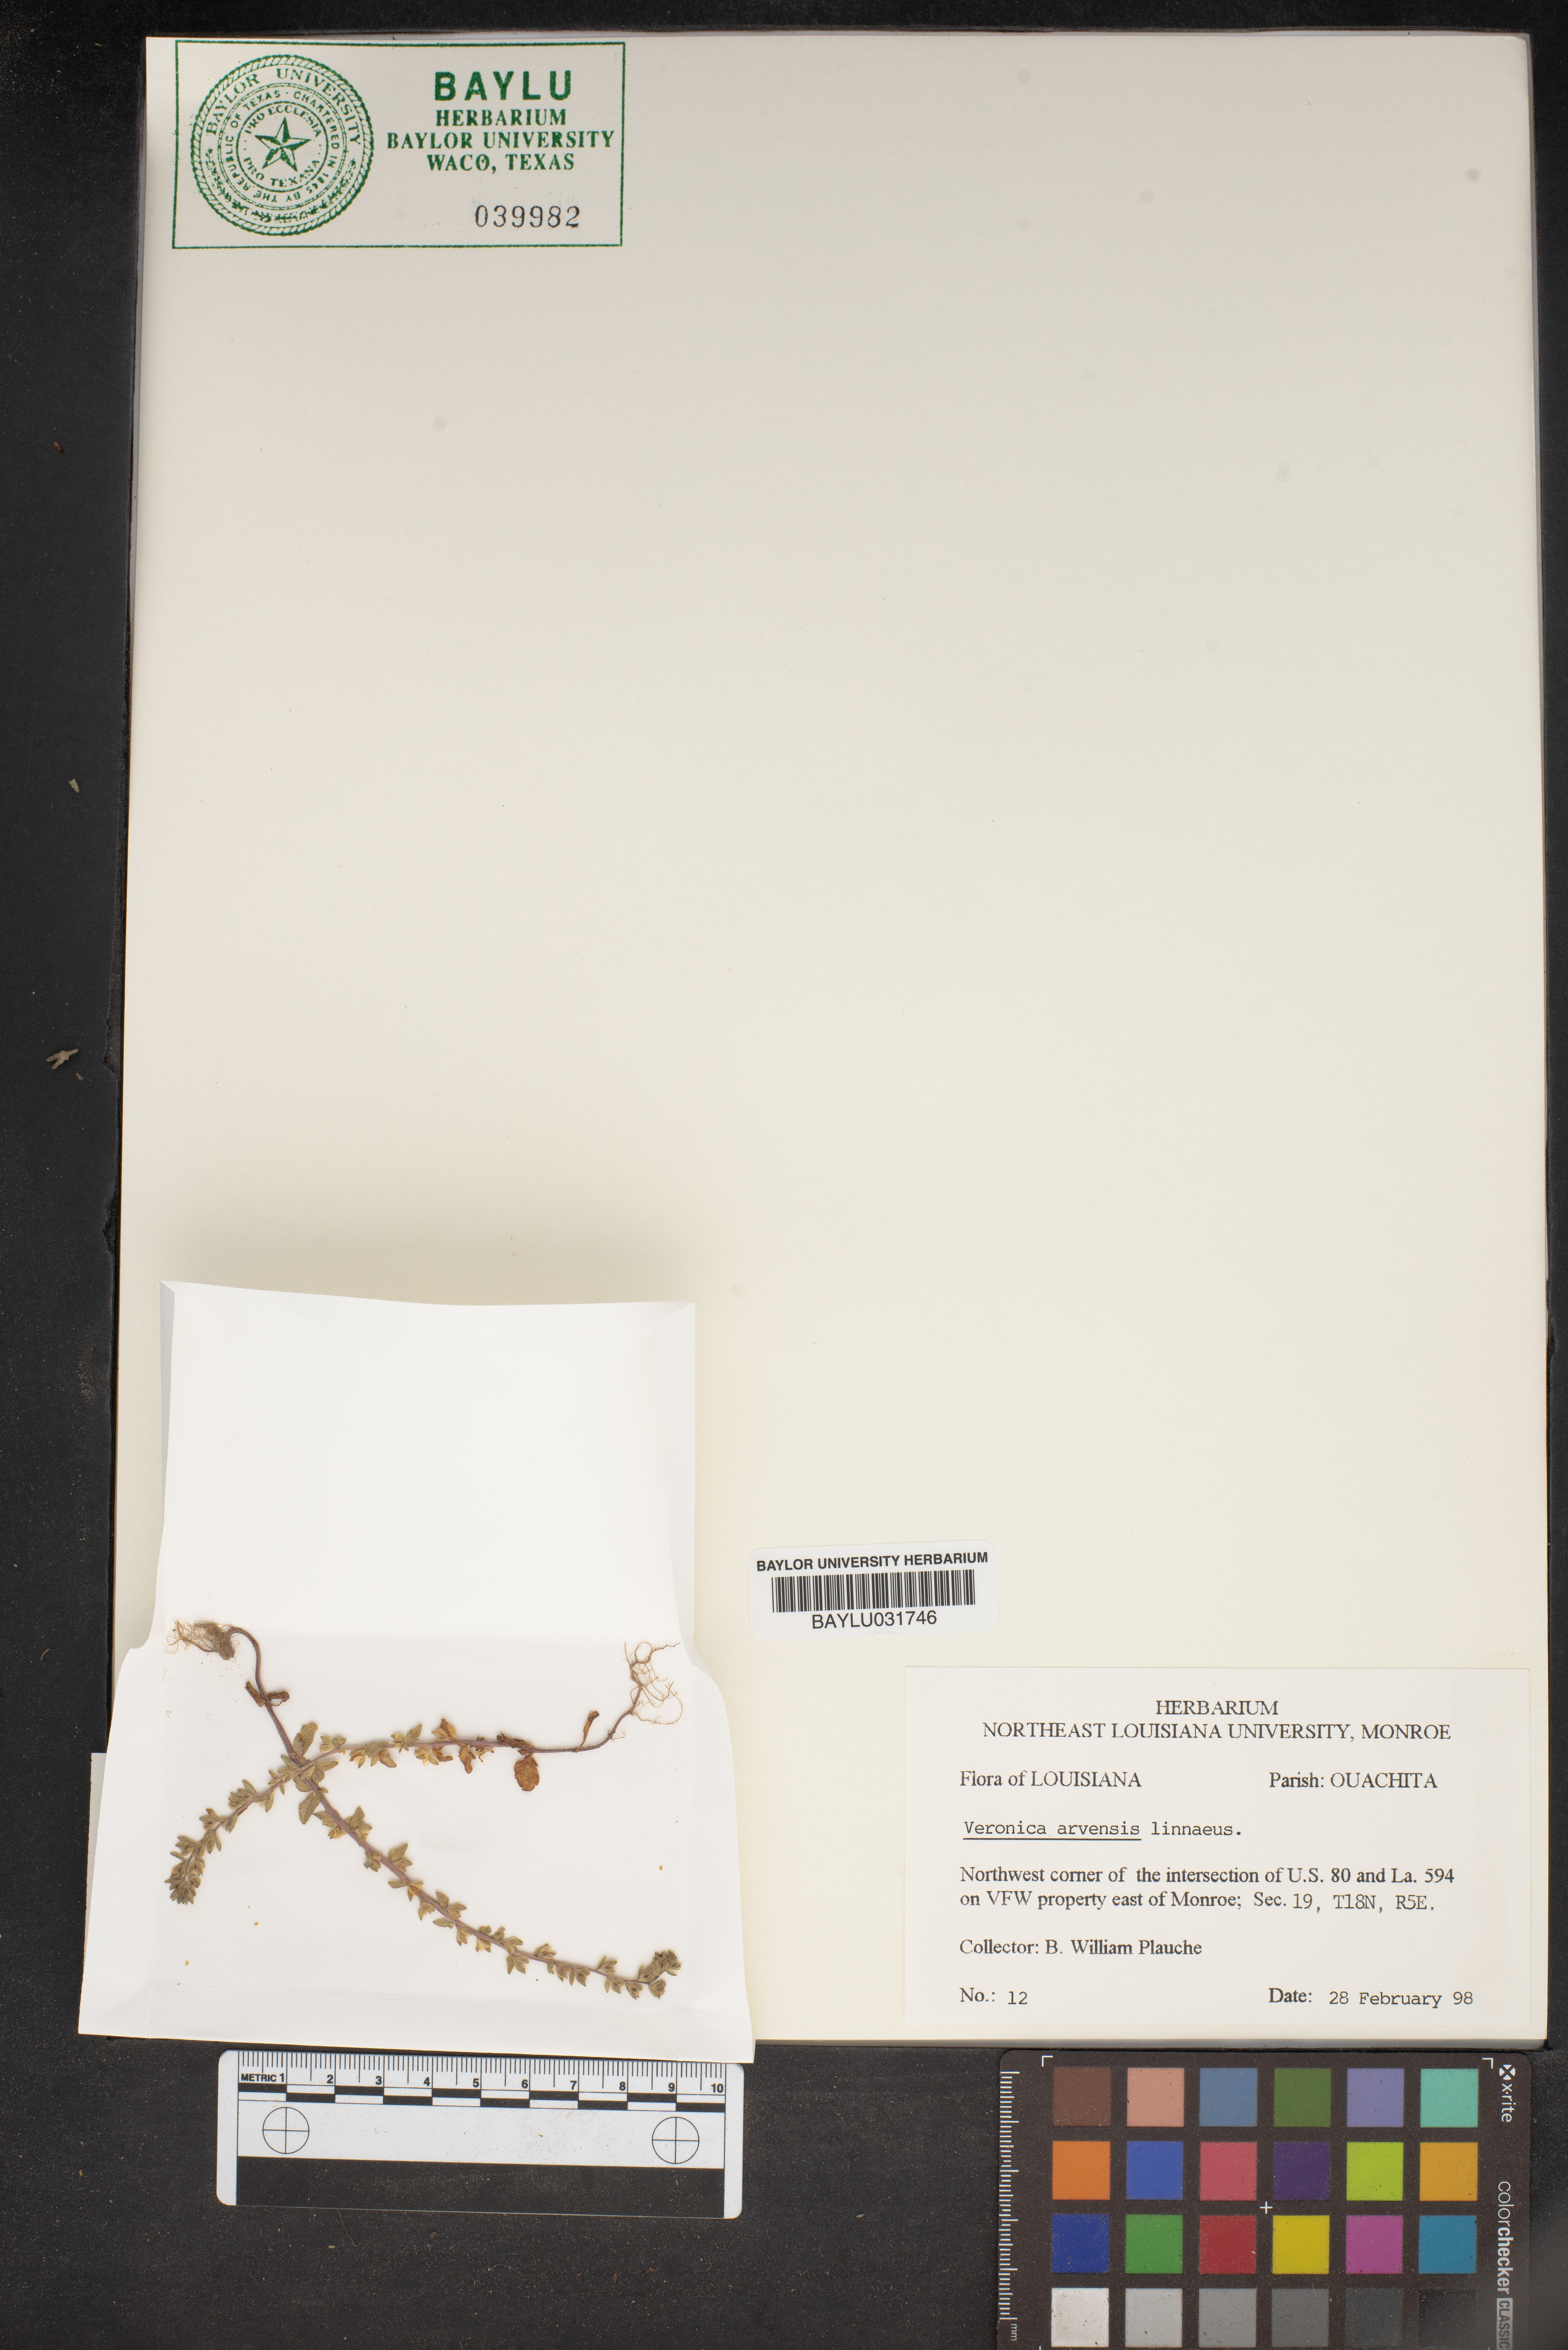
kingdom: Plantae
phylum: Tracheophyta
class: Magnoliopsida
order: Lamiales
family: Plantaginaceae
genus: Veronica
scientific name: Veronica arvensis
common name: Corn speedwell
